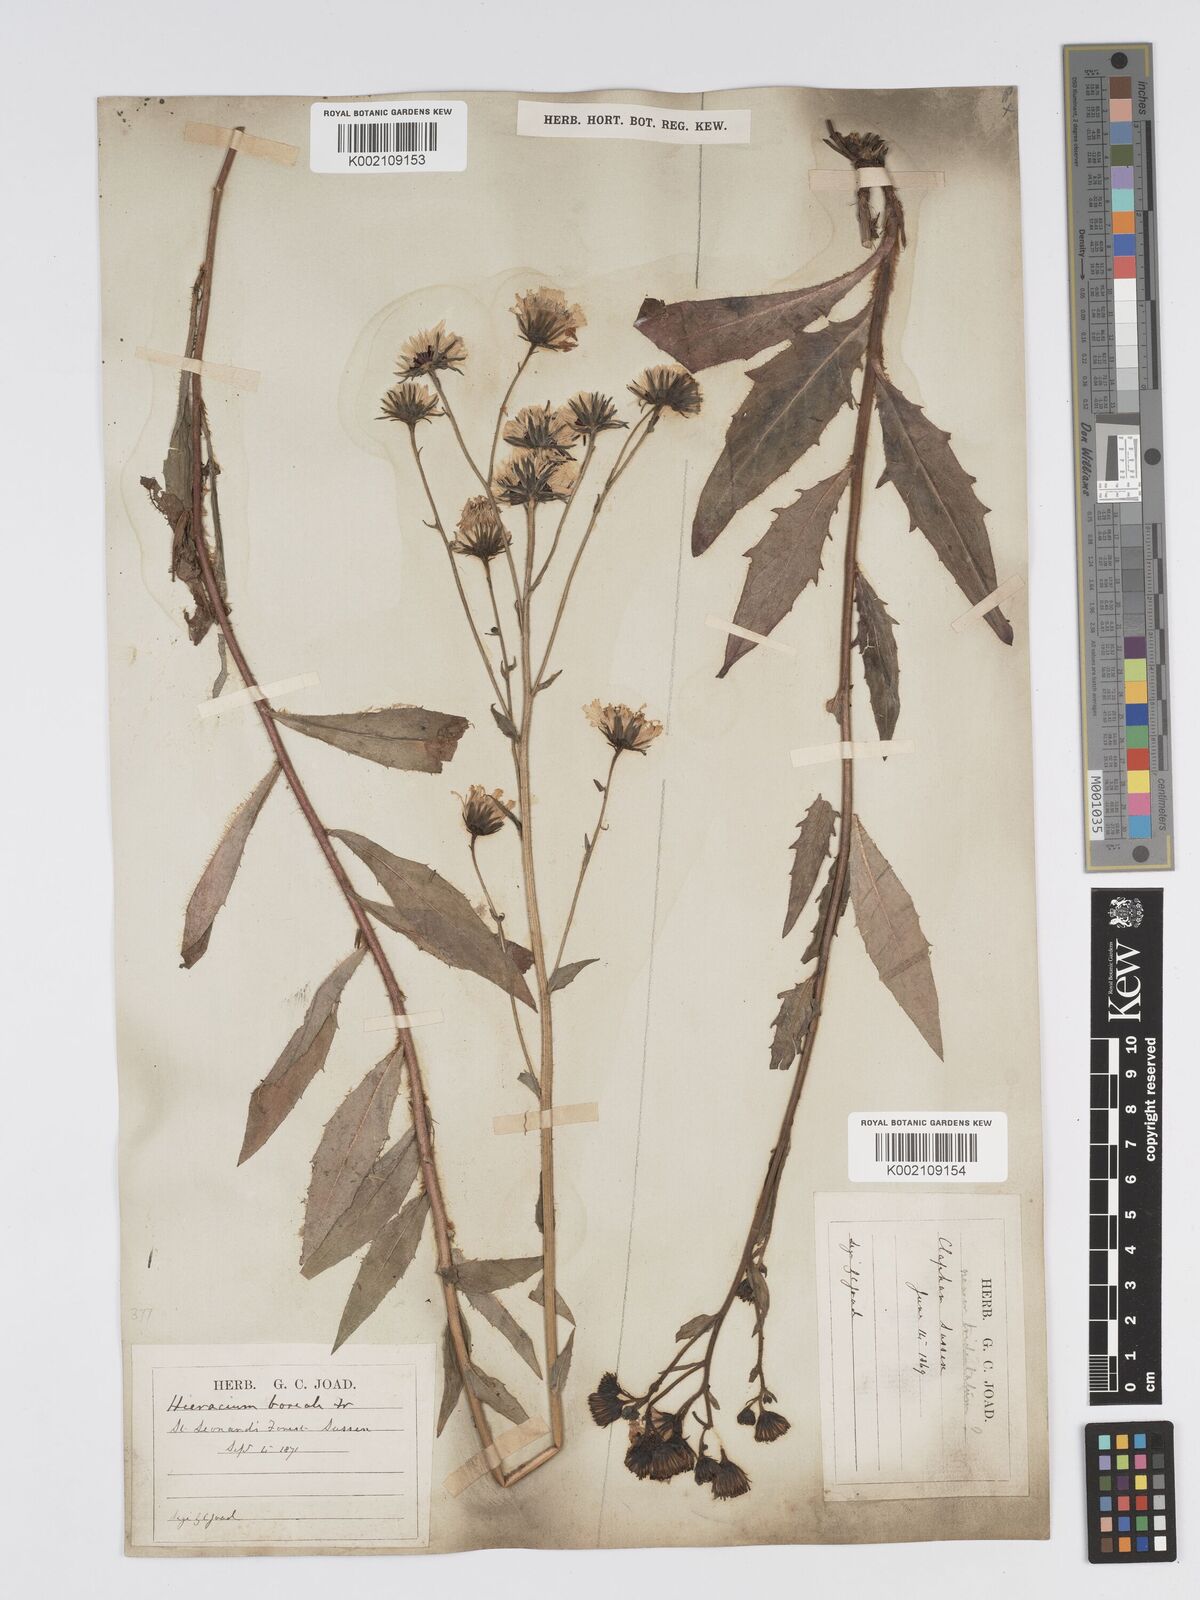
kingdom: Plantae
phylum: Tracheophyta
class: Magnoliopsida
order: Asterales
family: Asteraceae
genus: Hieracium
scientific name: Hieracium sabaudum
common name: New england hawkweed
